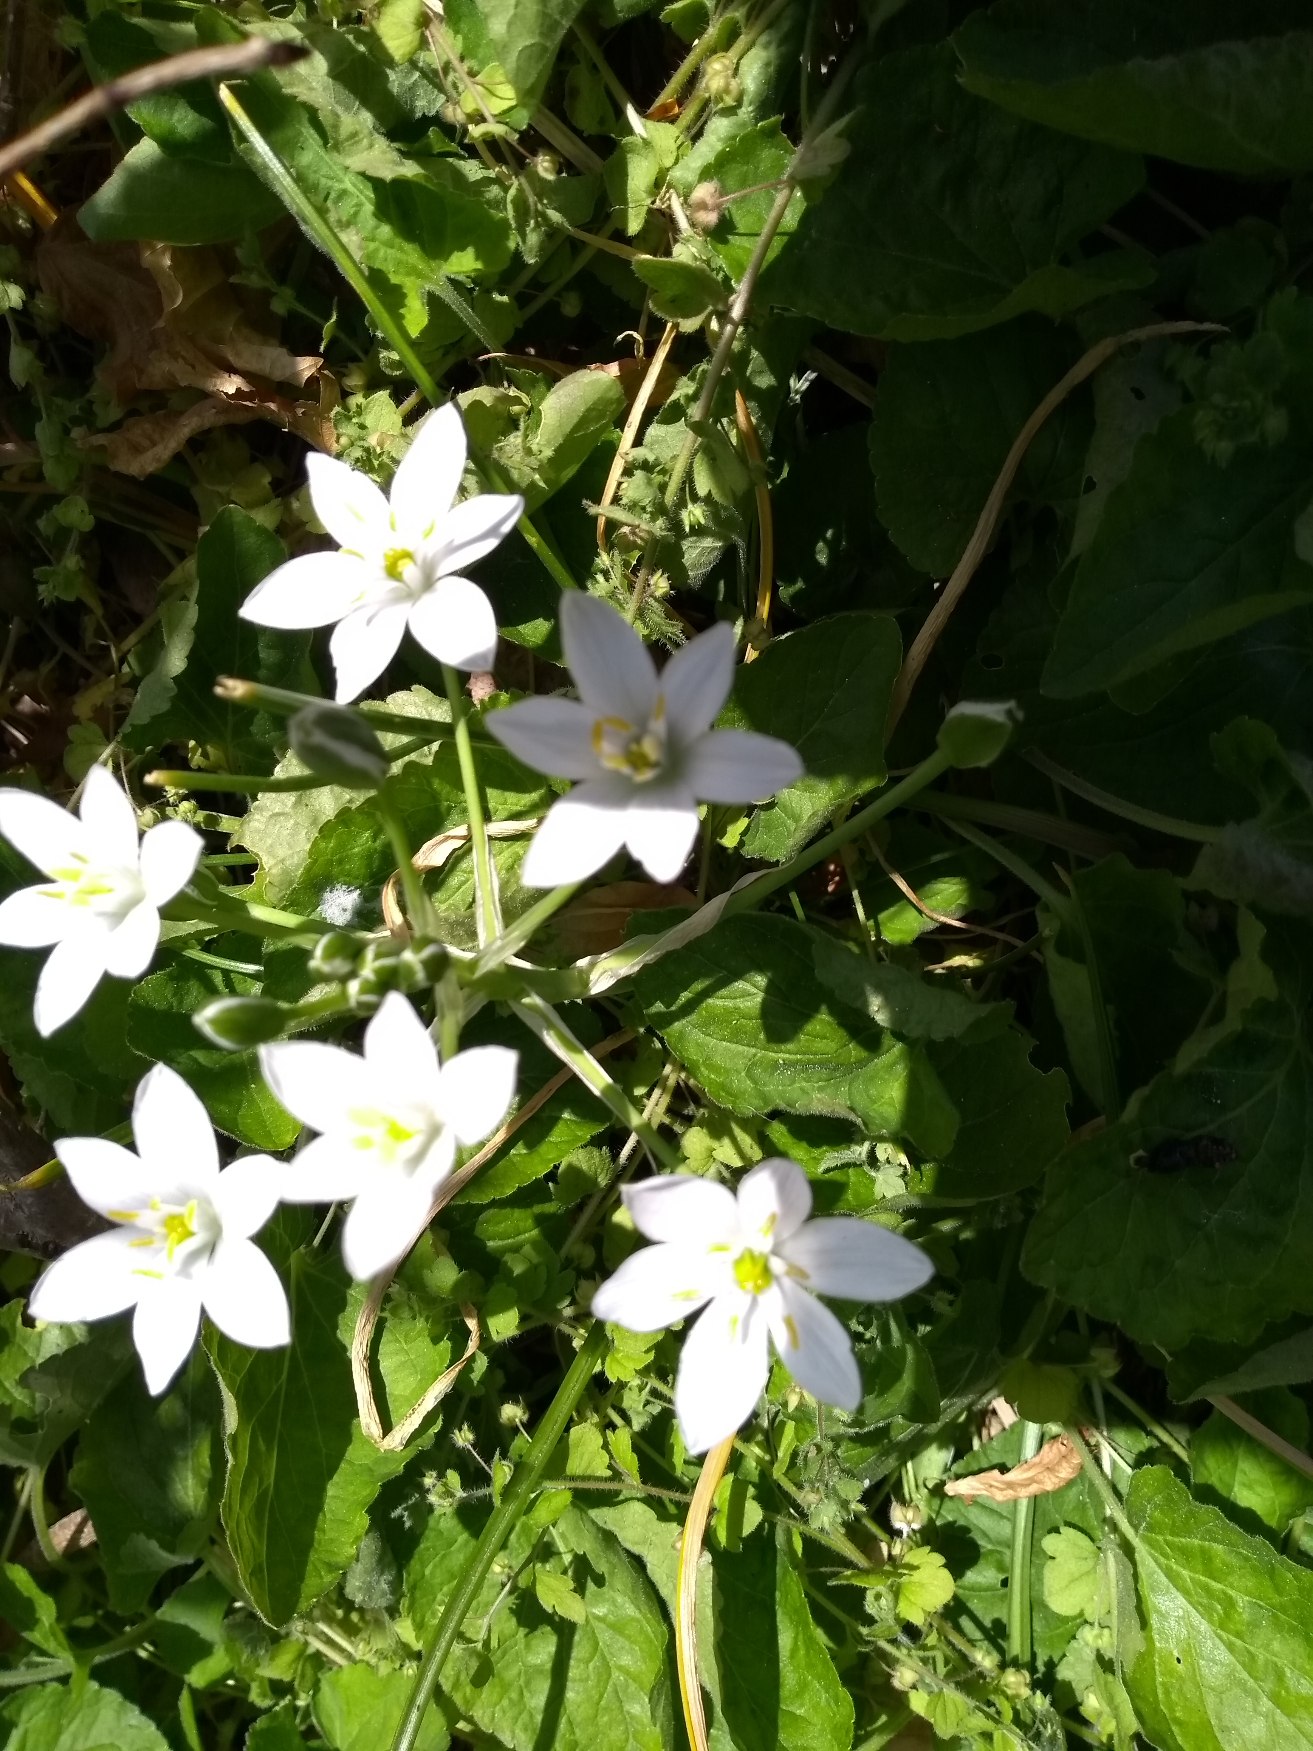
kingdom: Plantae
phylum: Tracheophyta
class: Liliopsida
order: Asparagales
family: Asparagaceae
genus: Ornithogalum
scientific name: Ornithogalum divergens
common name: Udspærret fuglemælk
